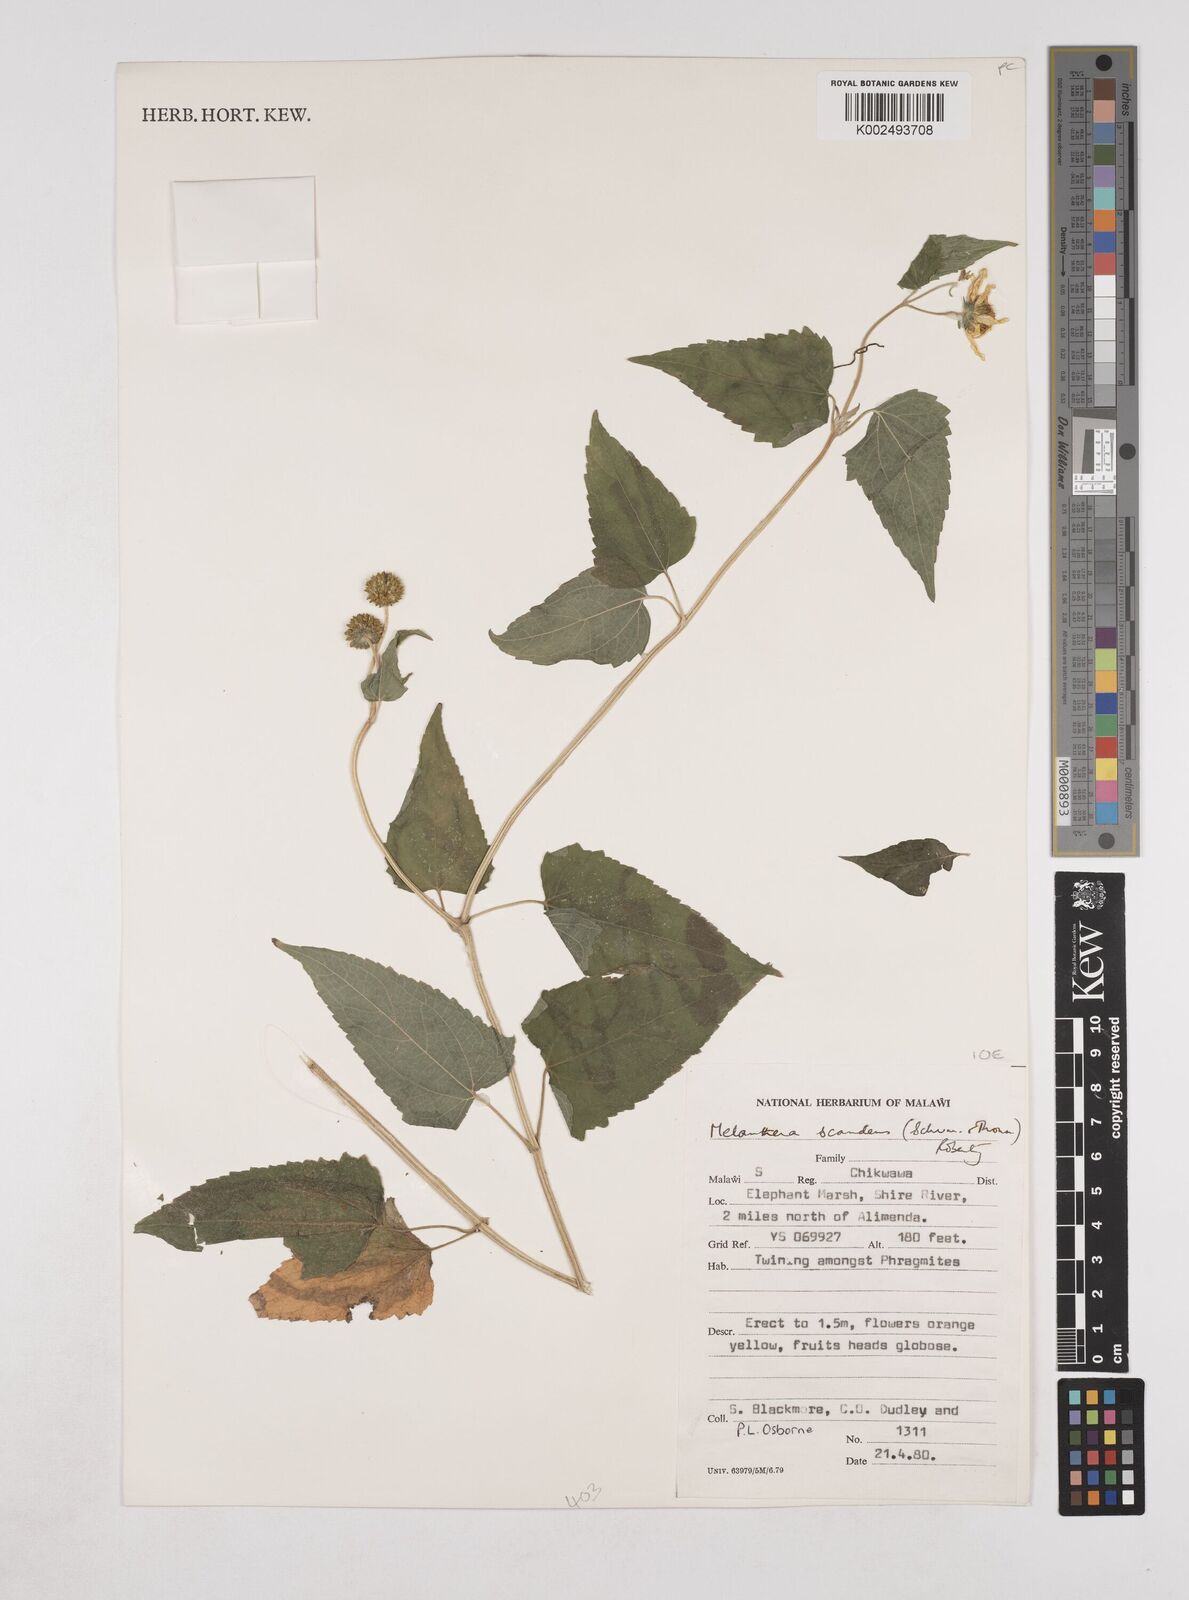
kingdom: Plantae
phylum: Tracheophyta
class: Magnoliopsida
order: Asterales
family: Asteraceae
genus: Lipotriche
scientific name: Lipotriche scandens
